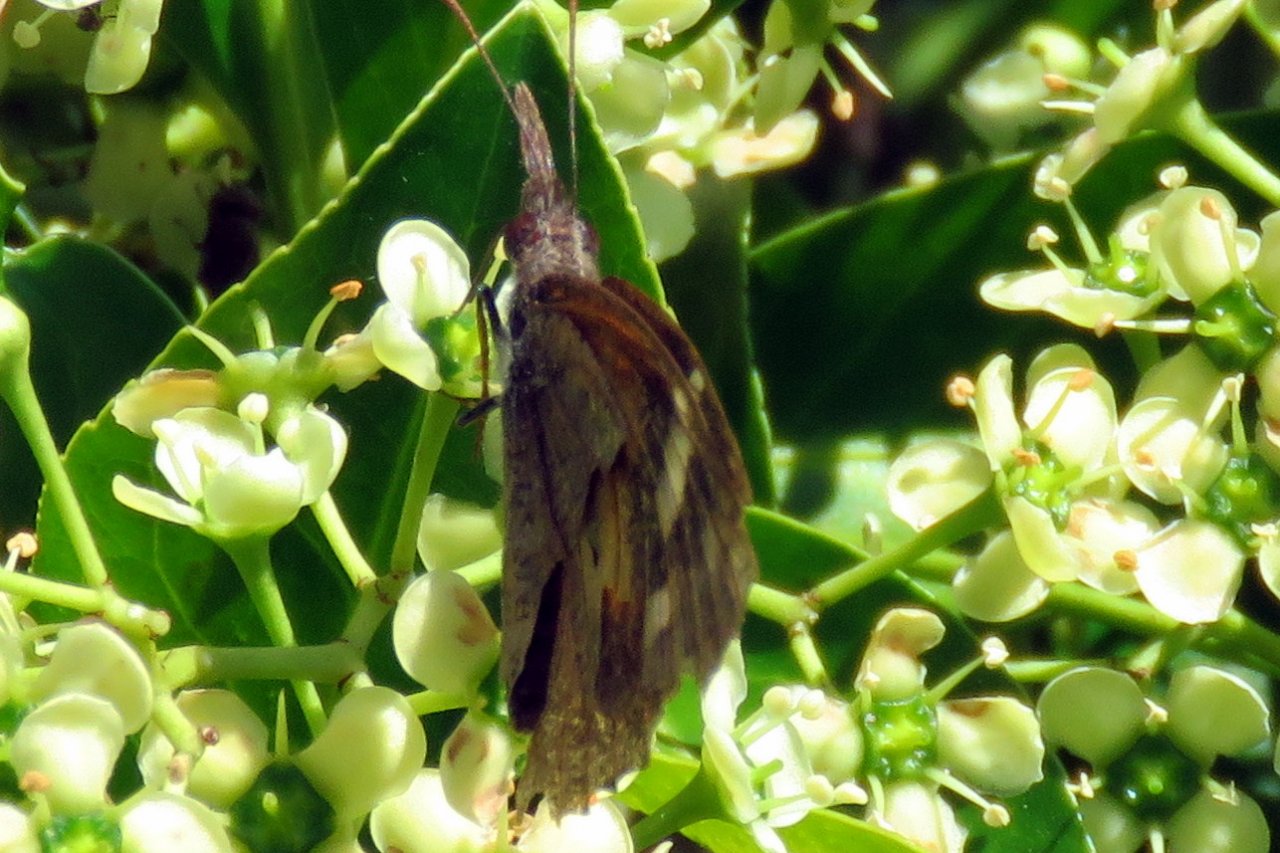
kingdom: Animalia
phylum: Arthropoda
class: Insecta
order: Lepidoptera
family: Nymphalidae
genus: Libytheana
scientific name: Libytheana carinenta
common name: American Snout
